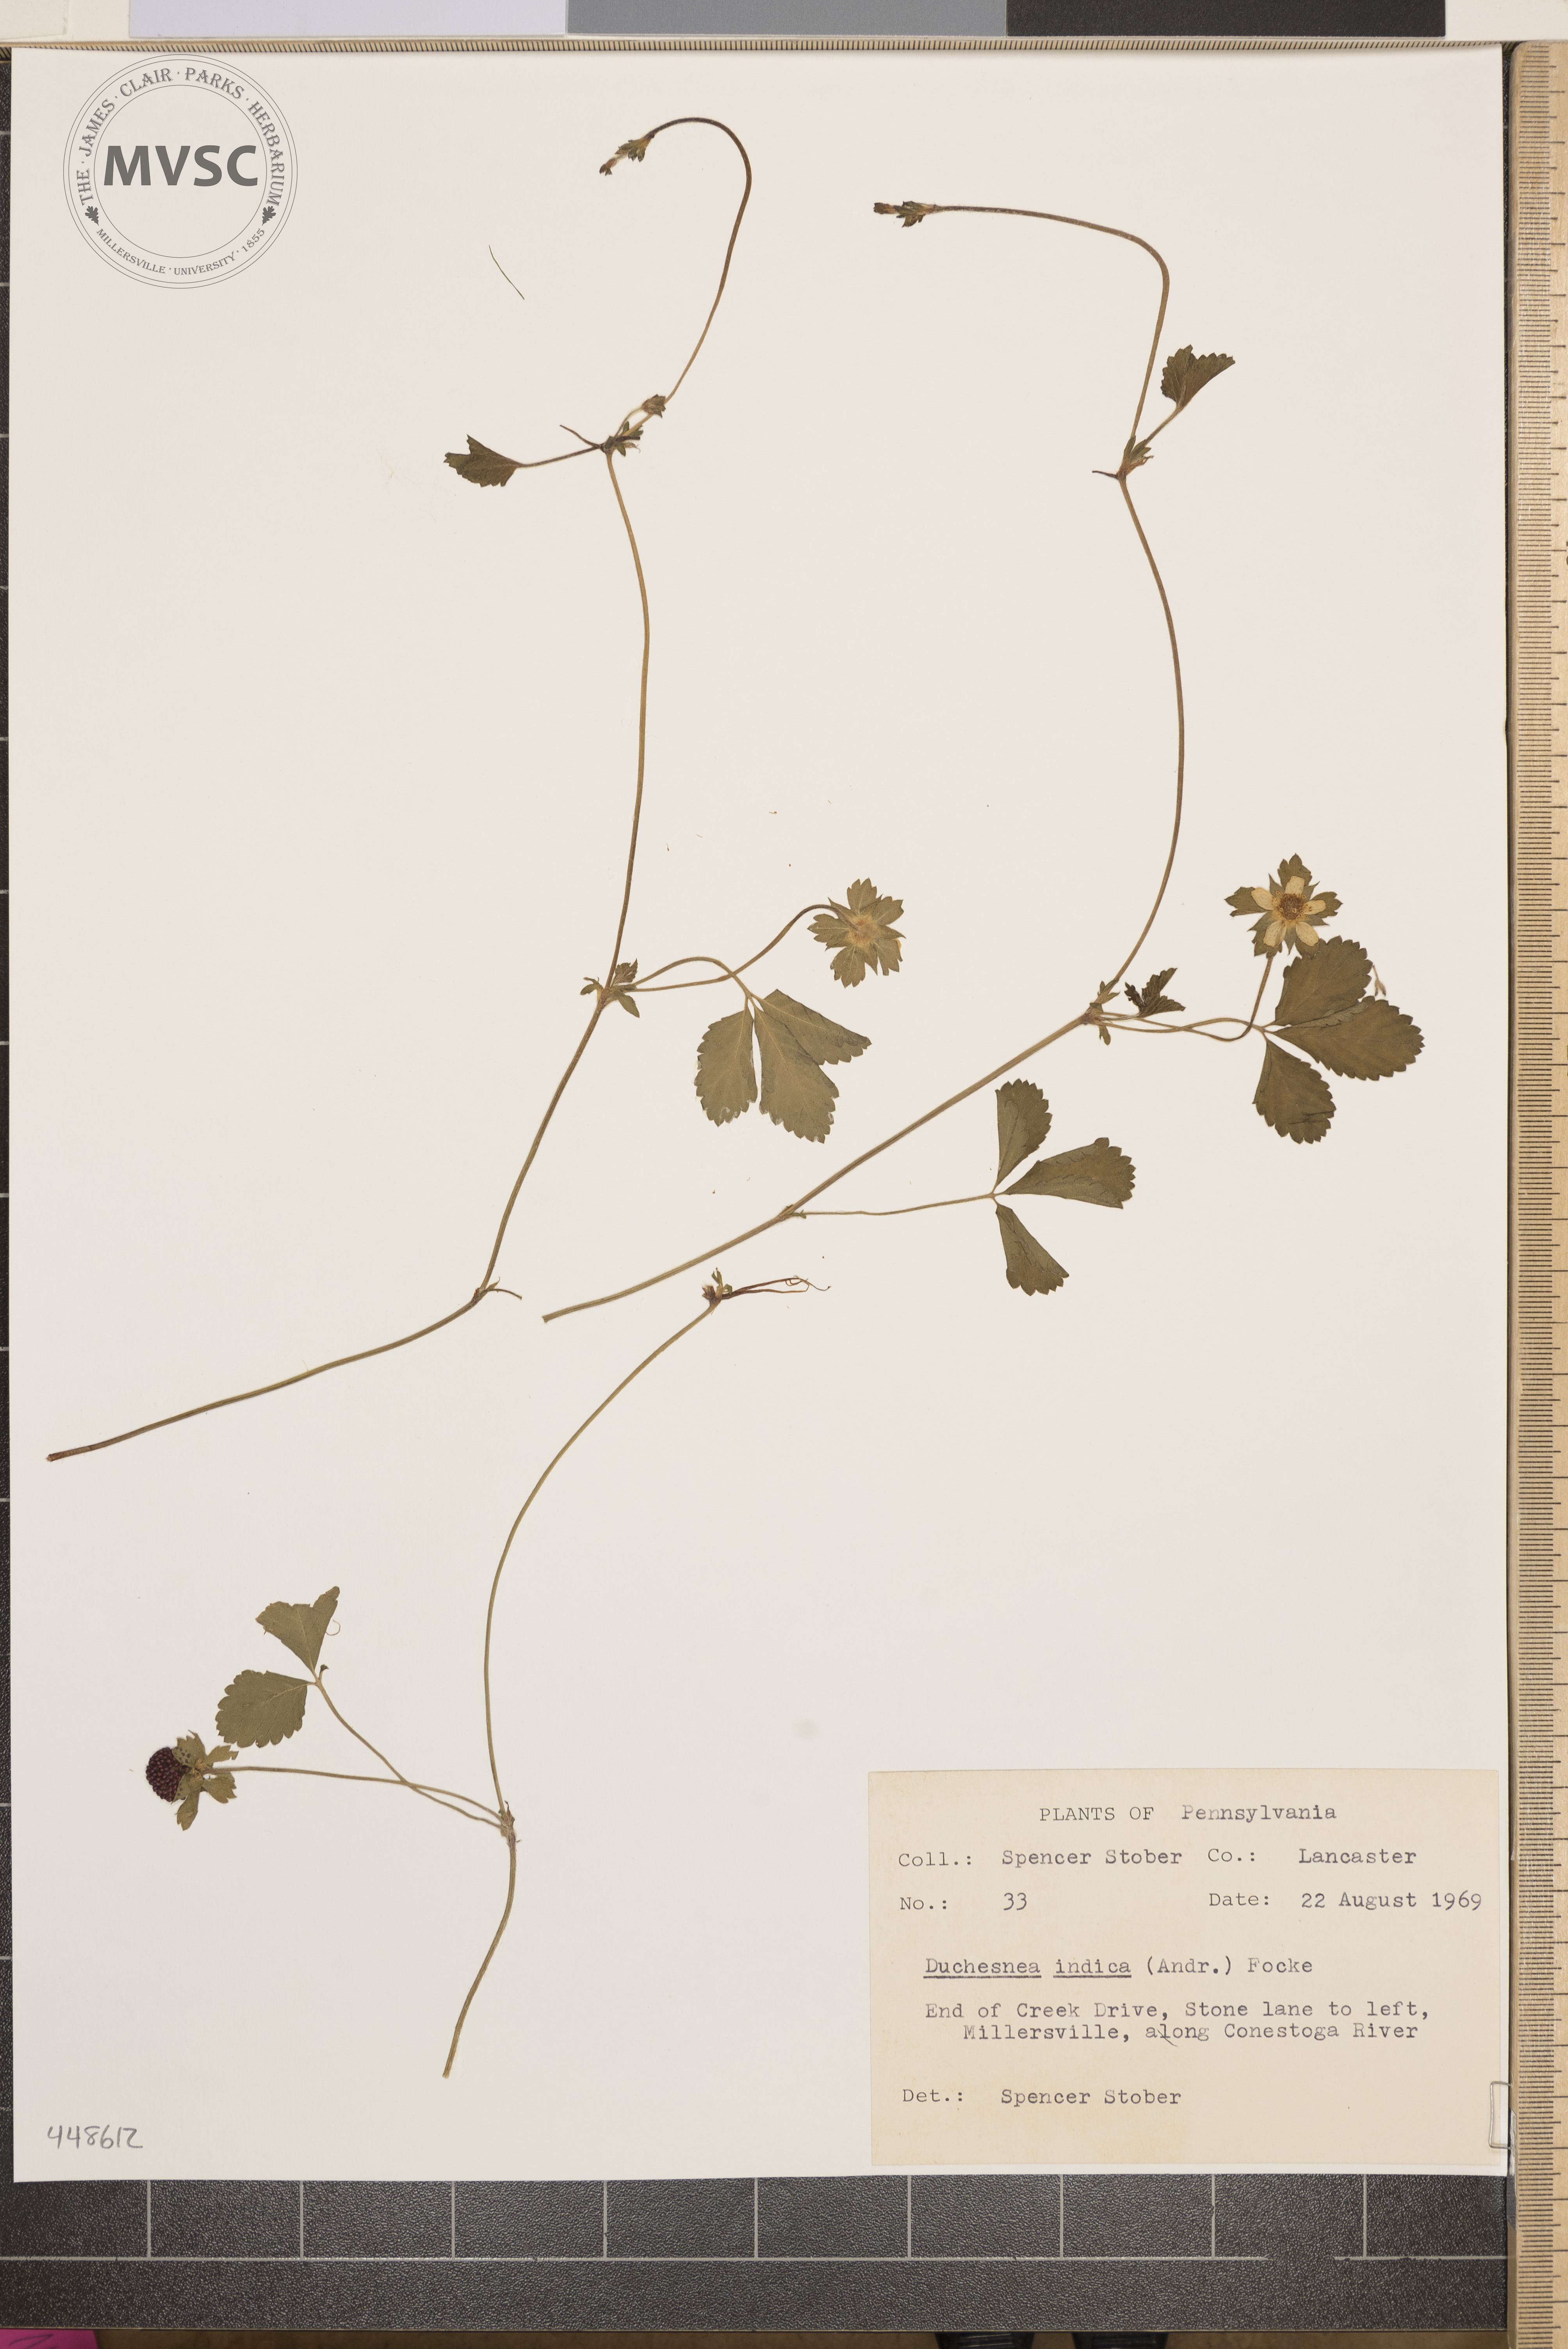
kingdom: Plantae
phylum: Tracheophyta
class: Magnoliopsida
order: Rosales
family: Rosaceae
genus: Potentilla
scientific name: Potentilla indica
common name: Yellow-flowered strawberry
